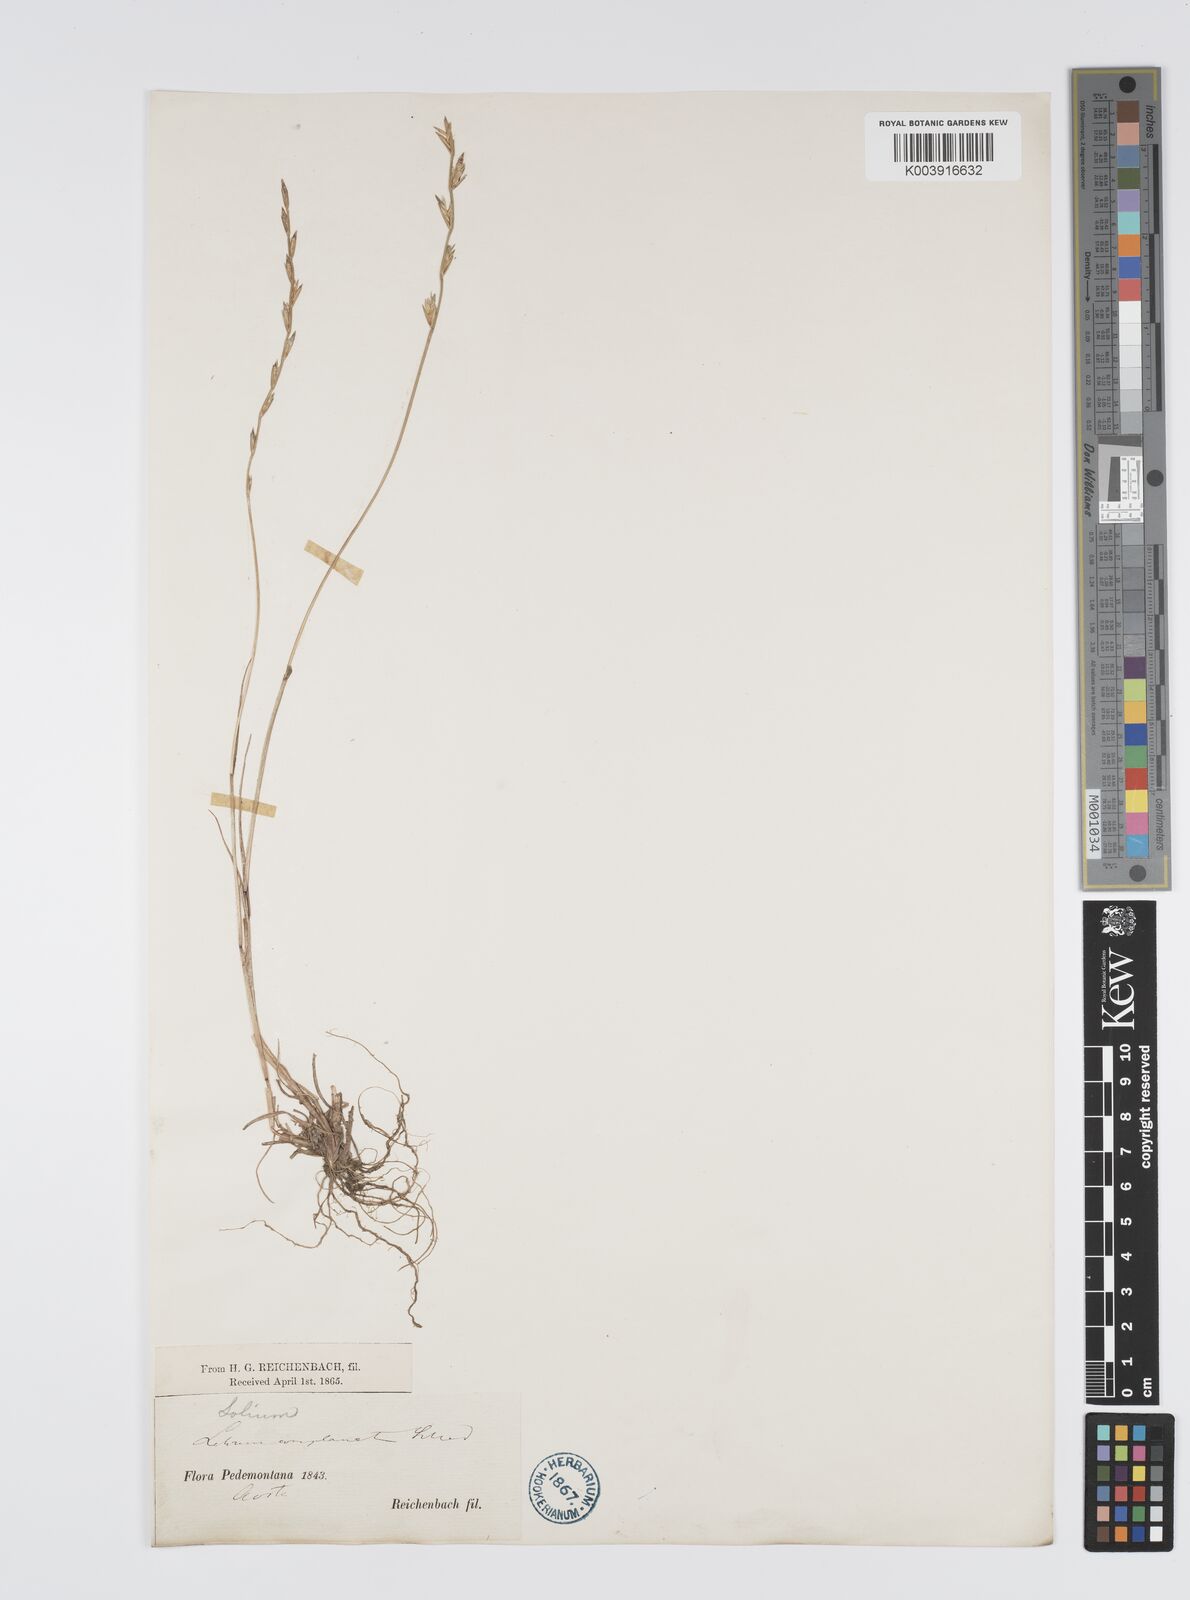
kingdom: Plantae
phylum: Tracheophyta
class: Liliopsida
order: Poales
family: Poaceae
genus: Lolium
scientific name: Lolium remotum
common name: Flaxfield rye-grass
